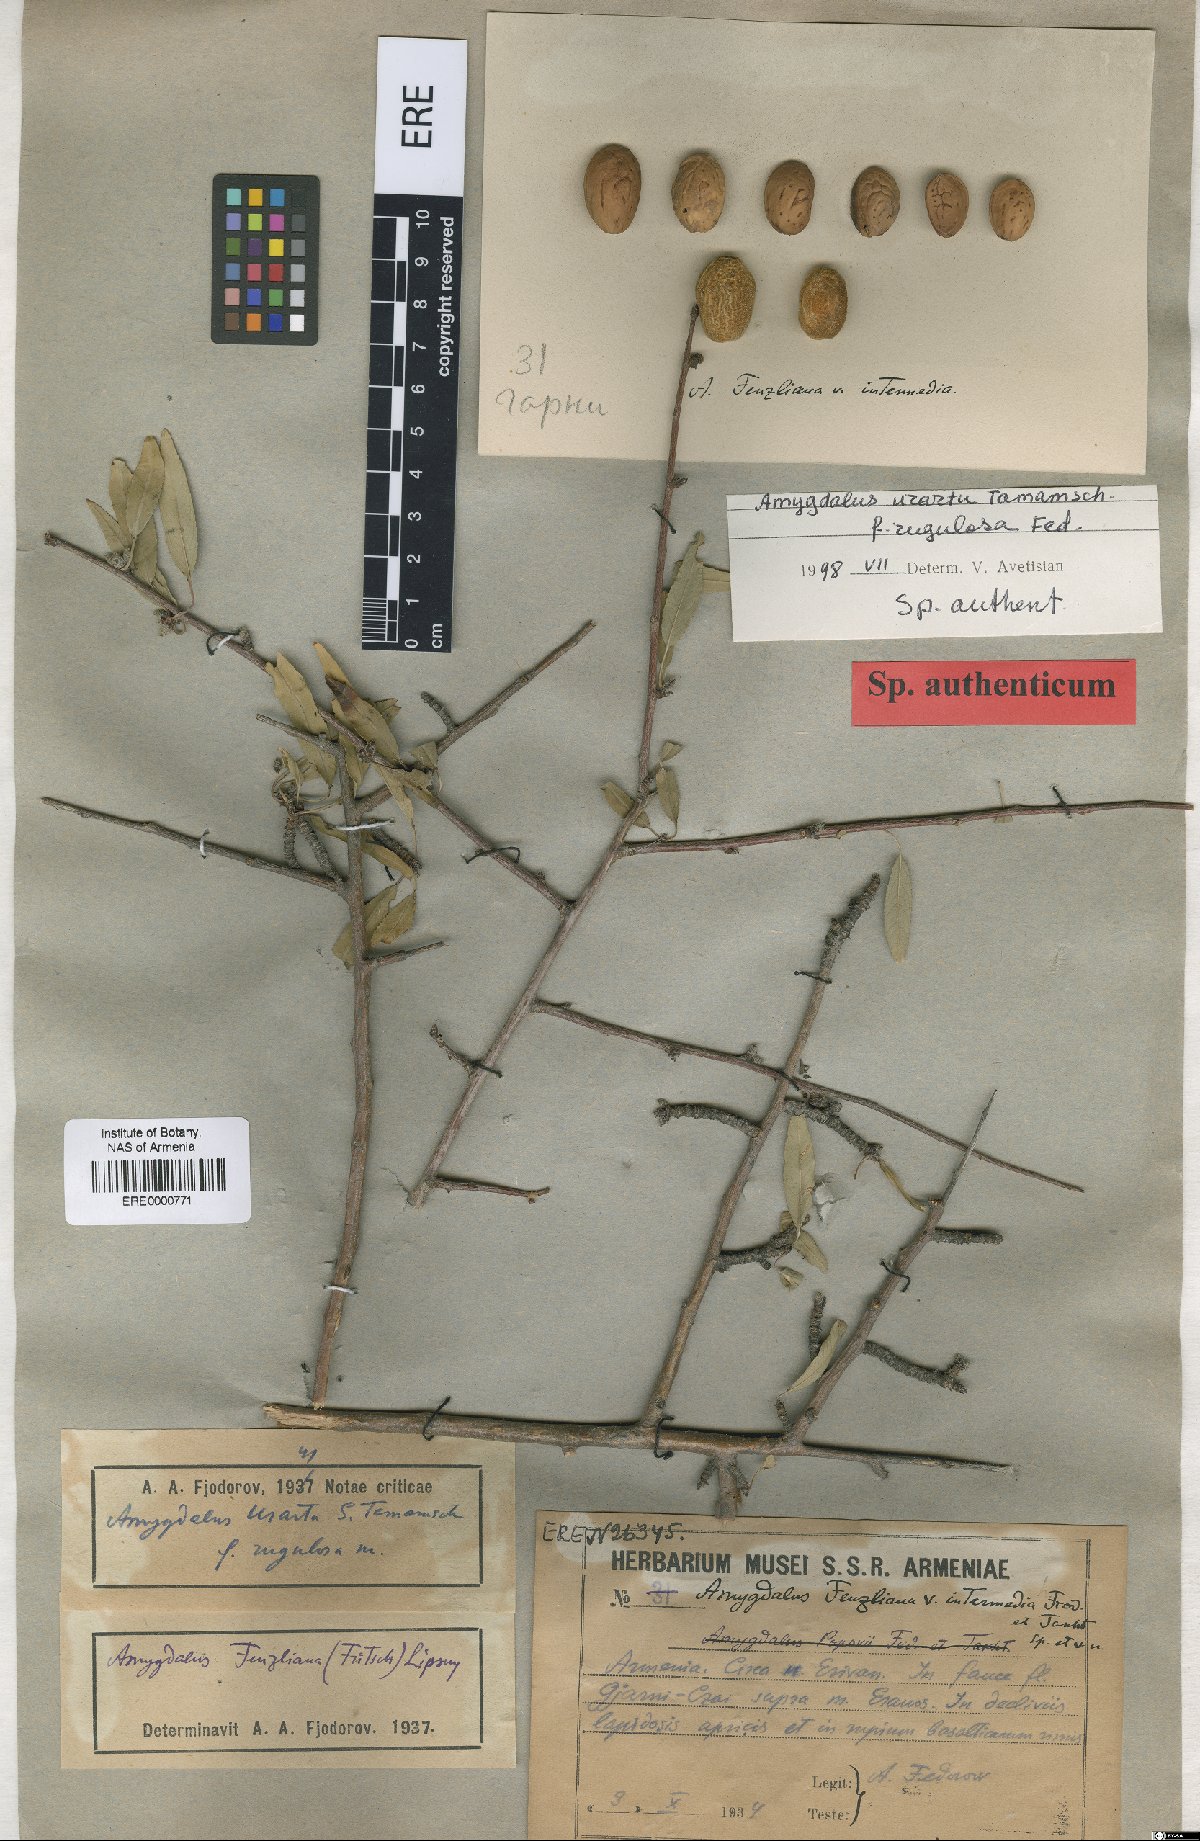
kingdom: Plantae
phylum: Tracheophyta
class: Magnoliopsida
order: Rosales
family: Rosaceae
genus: Prunus
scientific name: Prunus urartu
